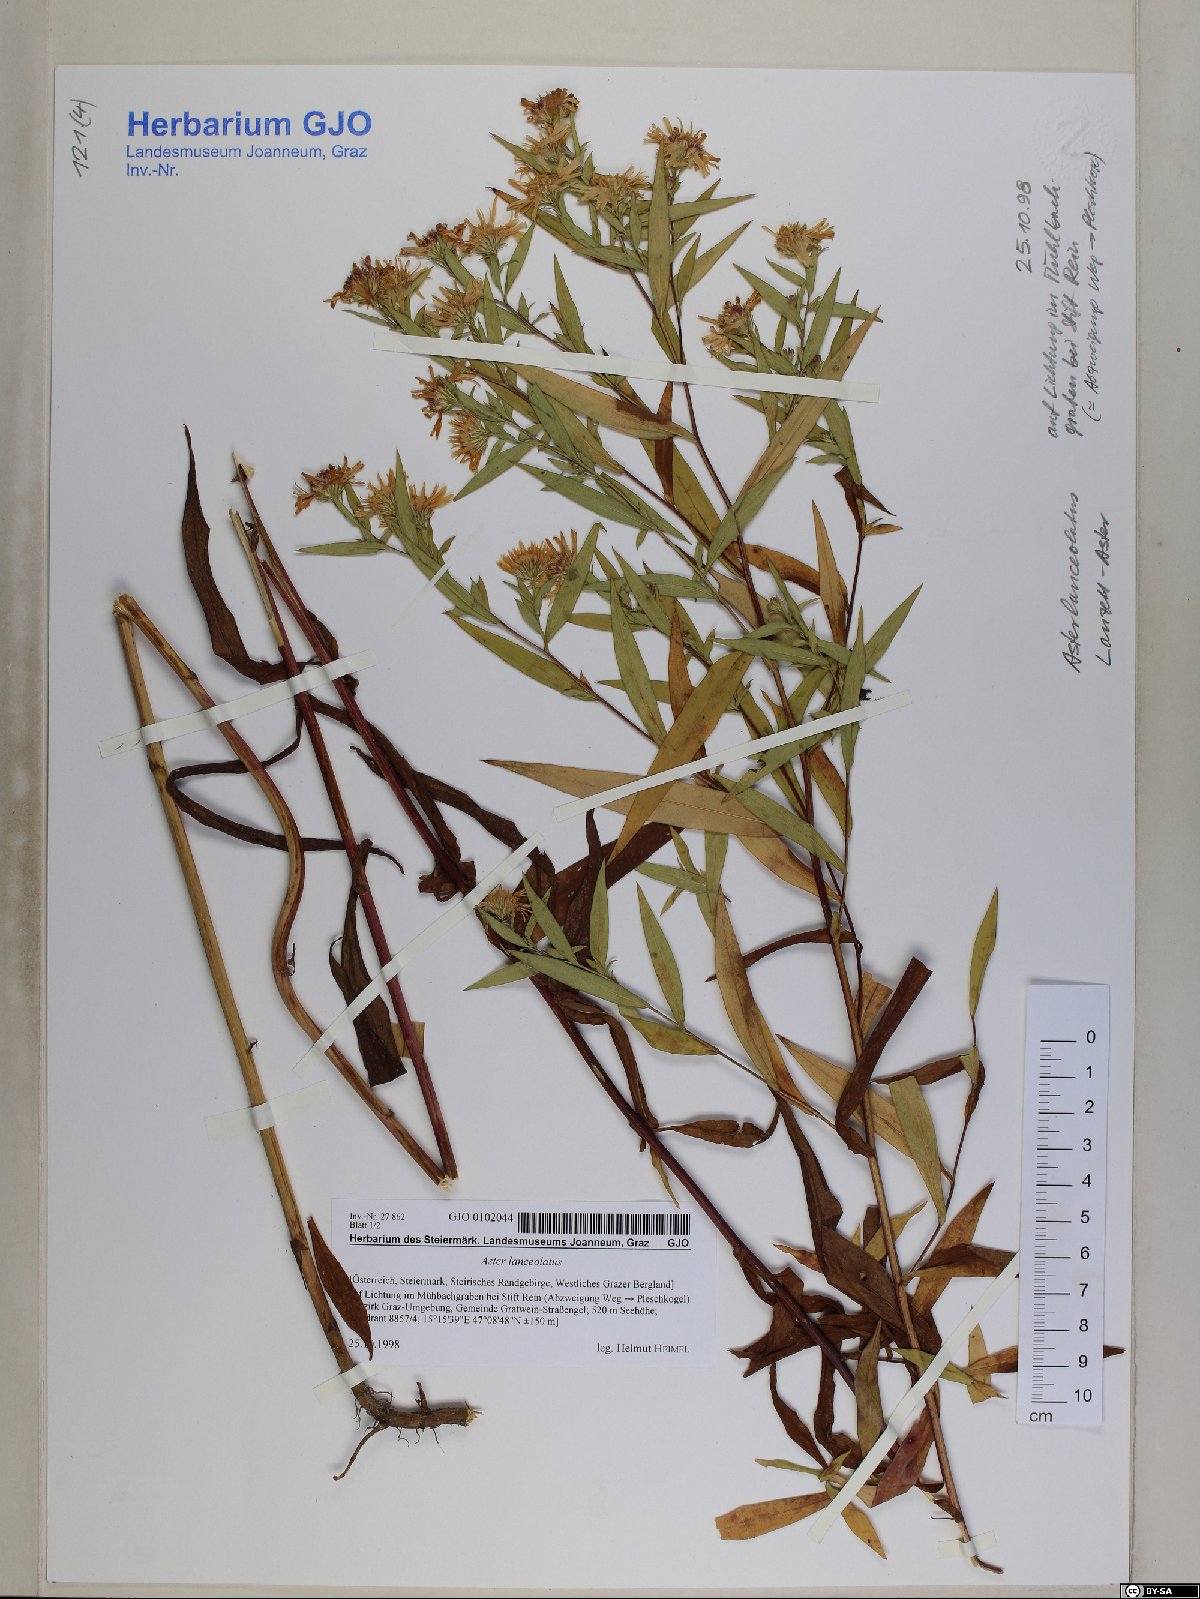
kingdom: Plantae
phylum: Tracheophyta
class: Magnoliopsida
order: Asterales
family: Asteraceae
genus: Symphyotrichum
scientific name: Symphyotrichum lanceolatum
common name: Panicled aster
